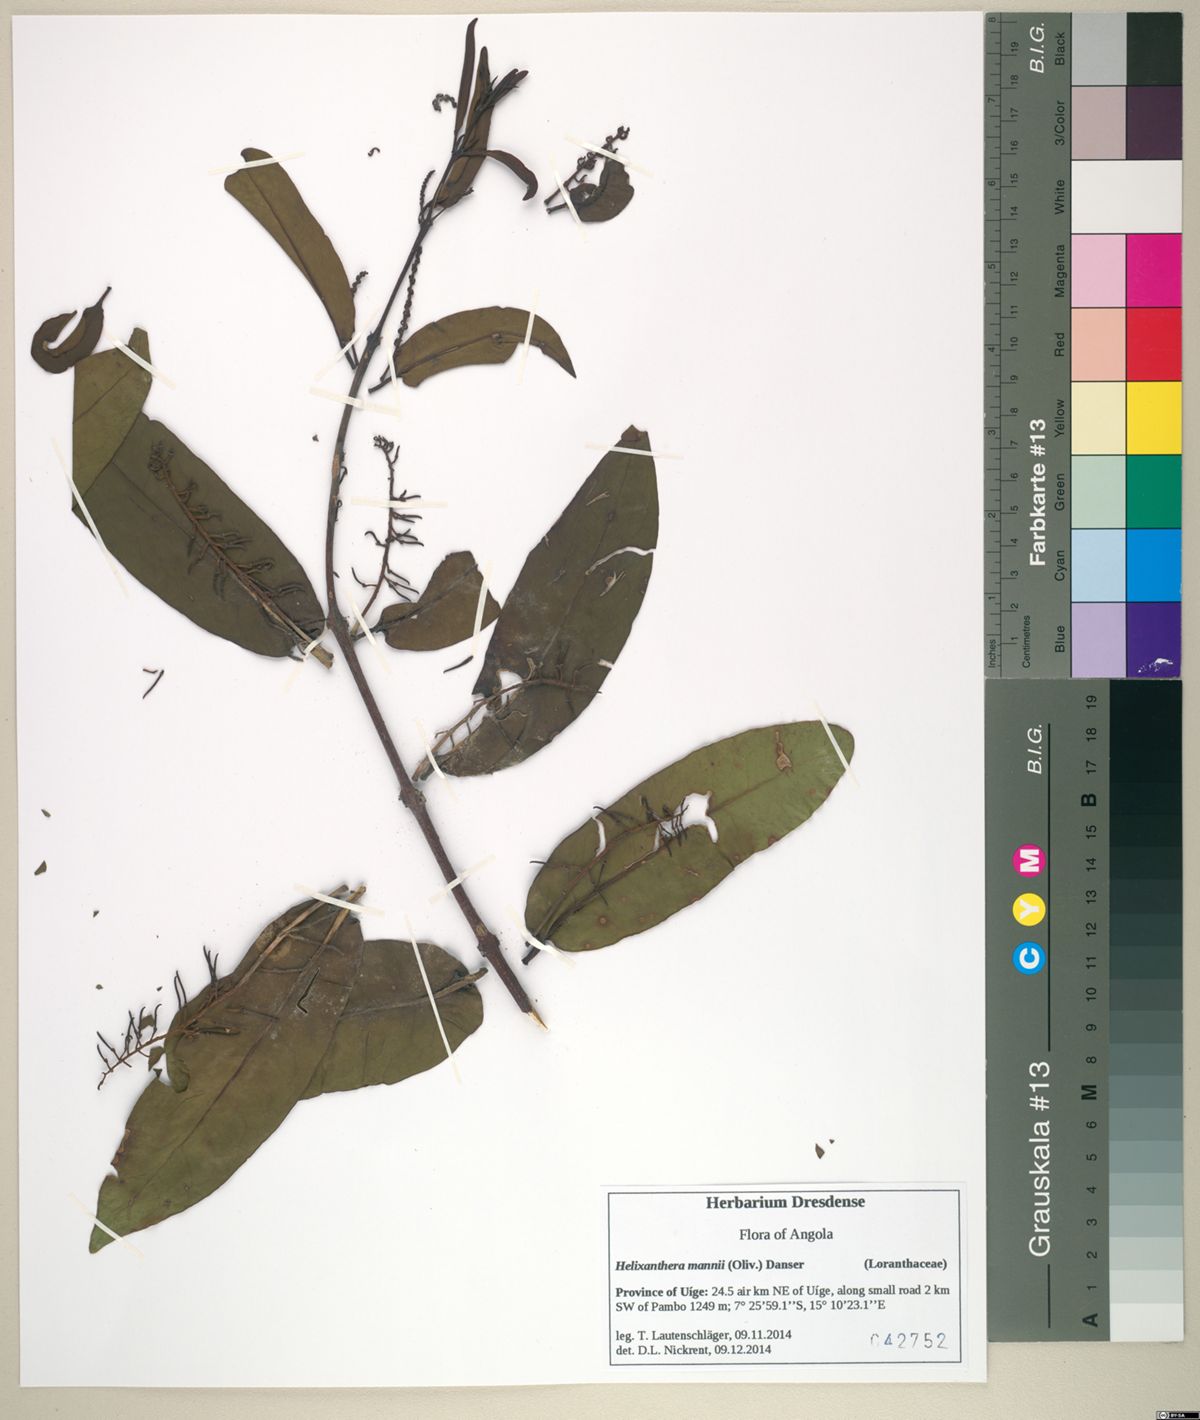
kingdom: Plantae
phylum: Tracheophyta
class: Magnoliopsida
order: Santalales
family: Loranthaceae
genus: Helixanthera
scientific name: Helixanthera mannii
